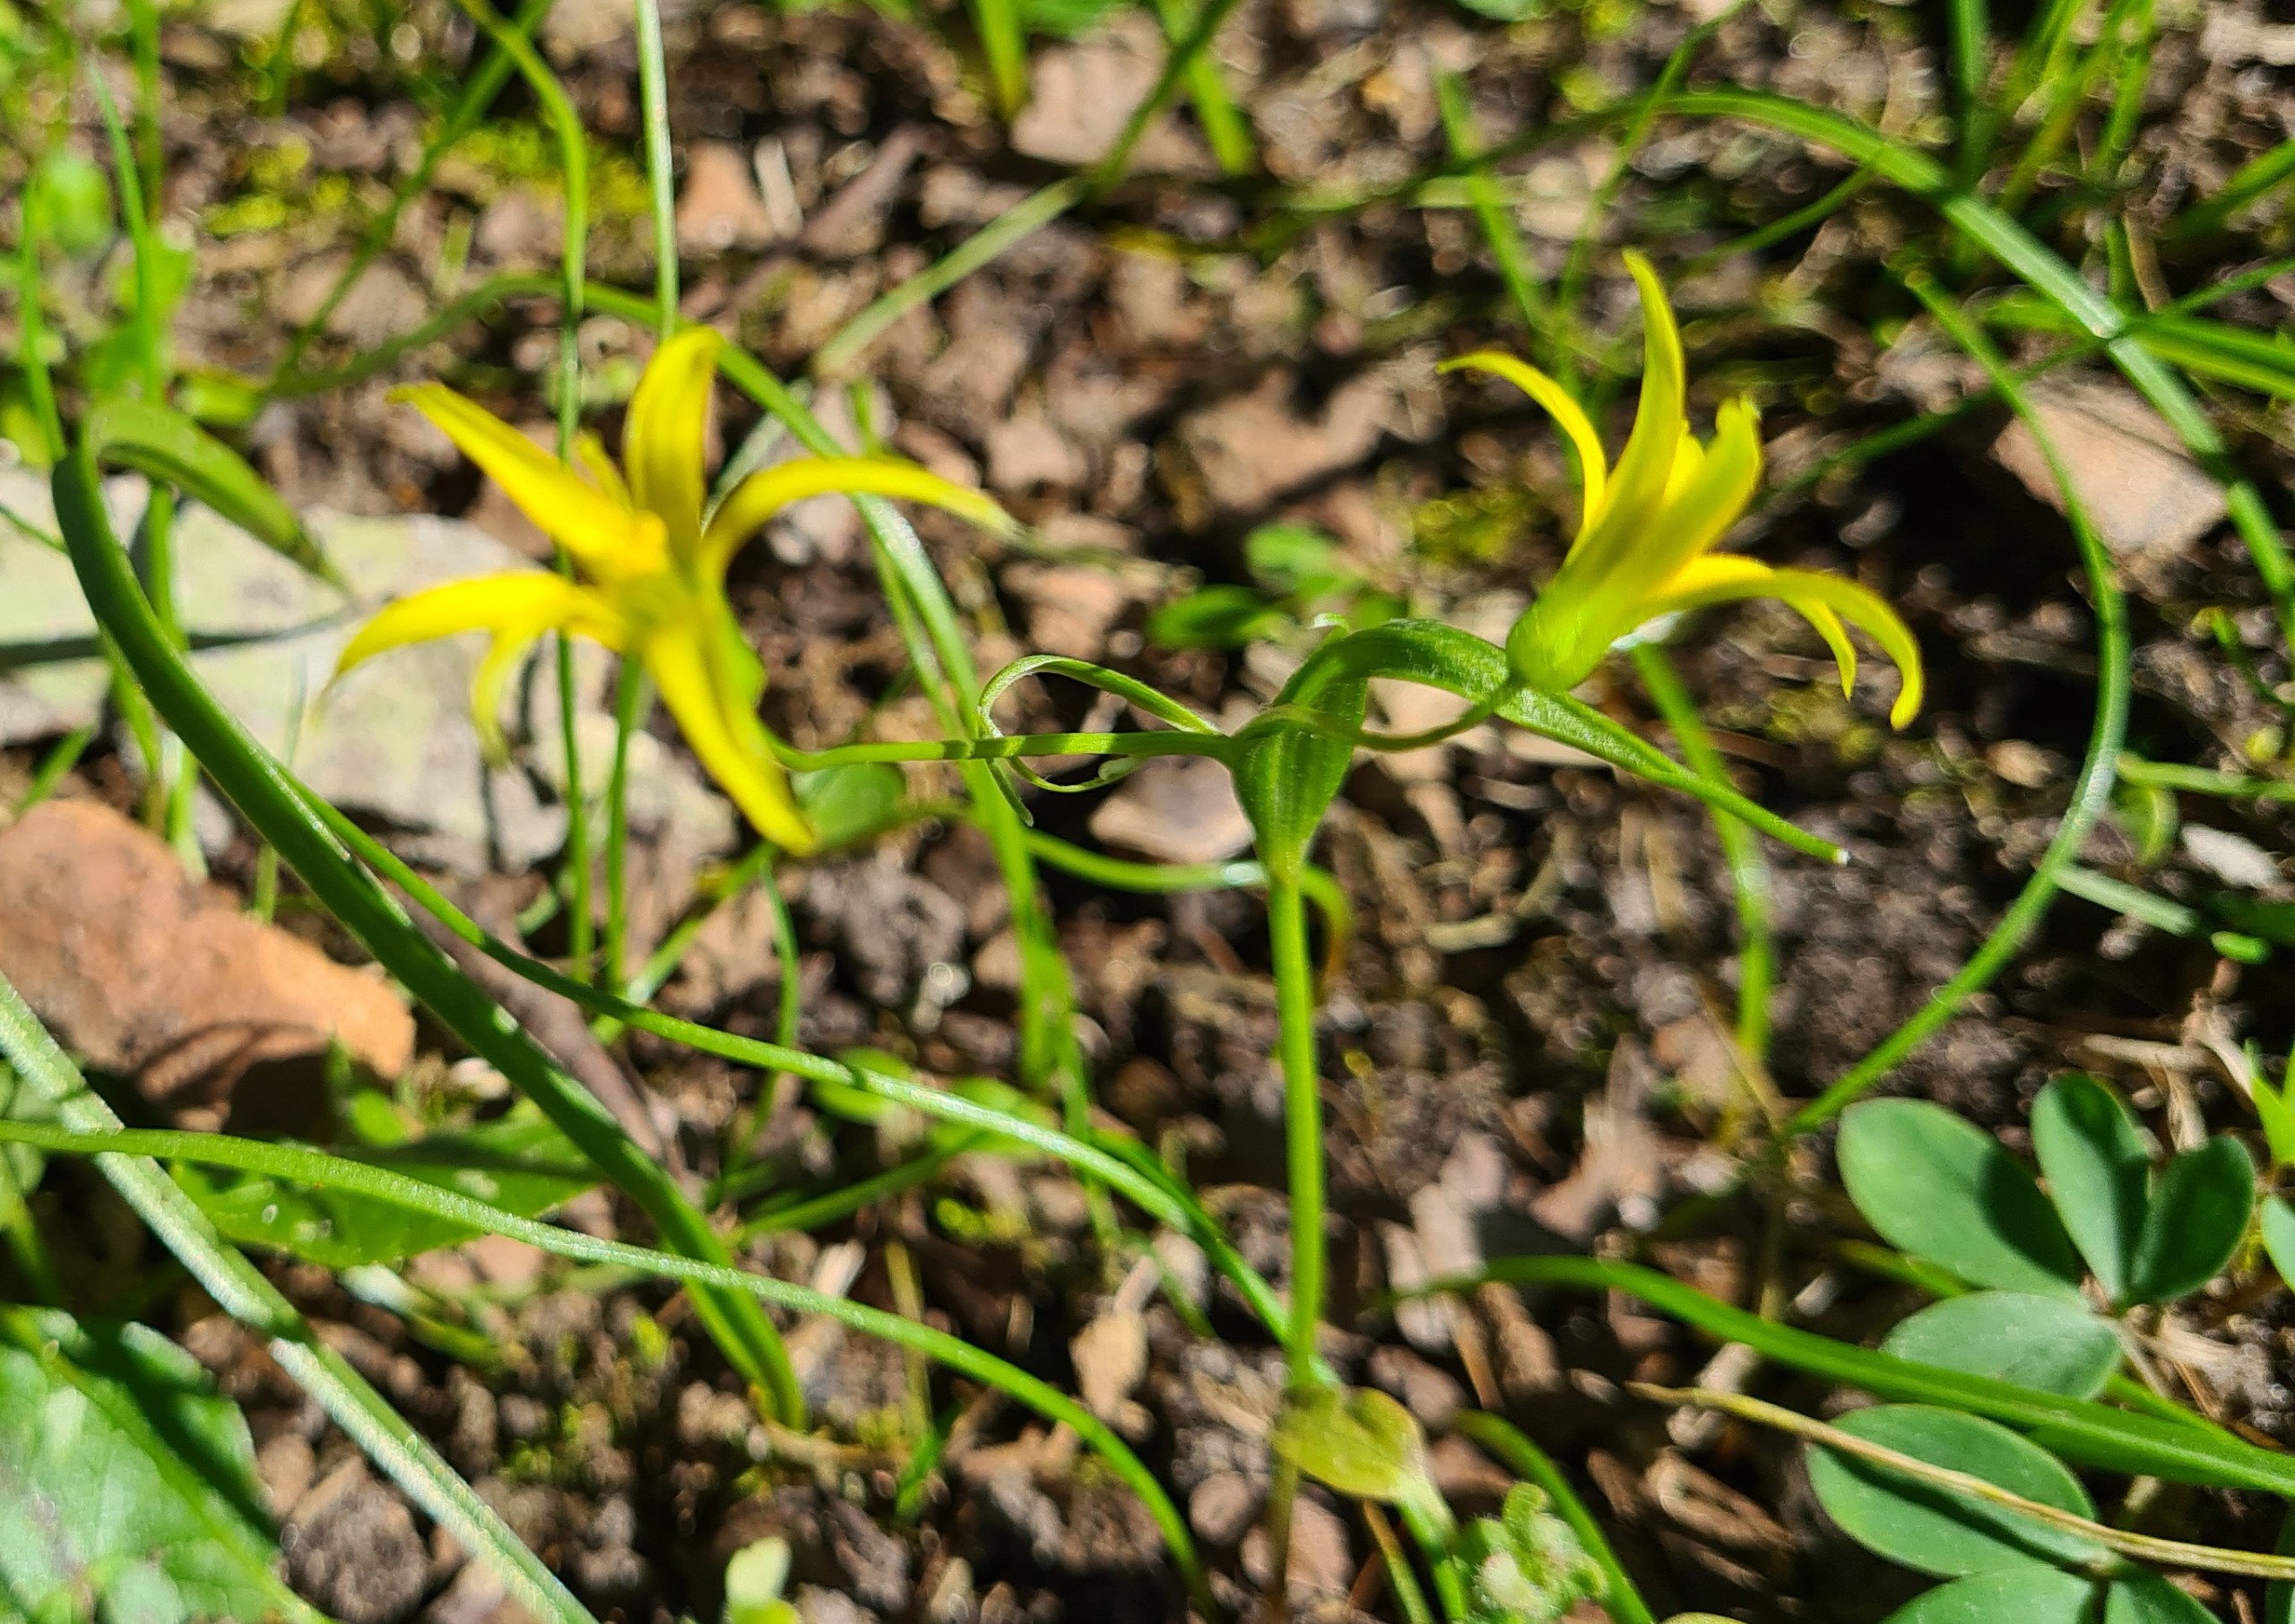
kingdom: Plantae
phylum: Tracheophyta
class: Liliopsida
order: Liliales
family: Liliaceae
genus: Gagea
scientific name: Gagea minima
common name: Liden guldstjerne
